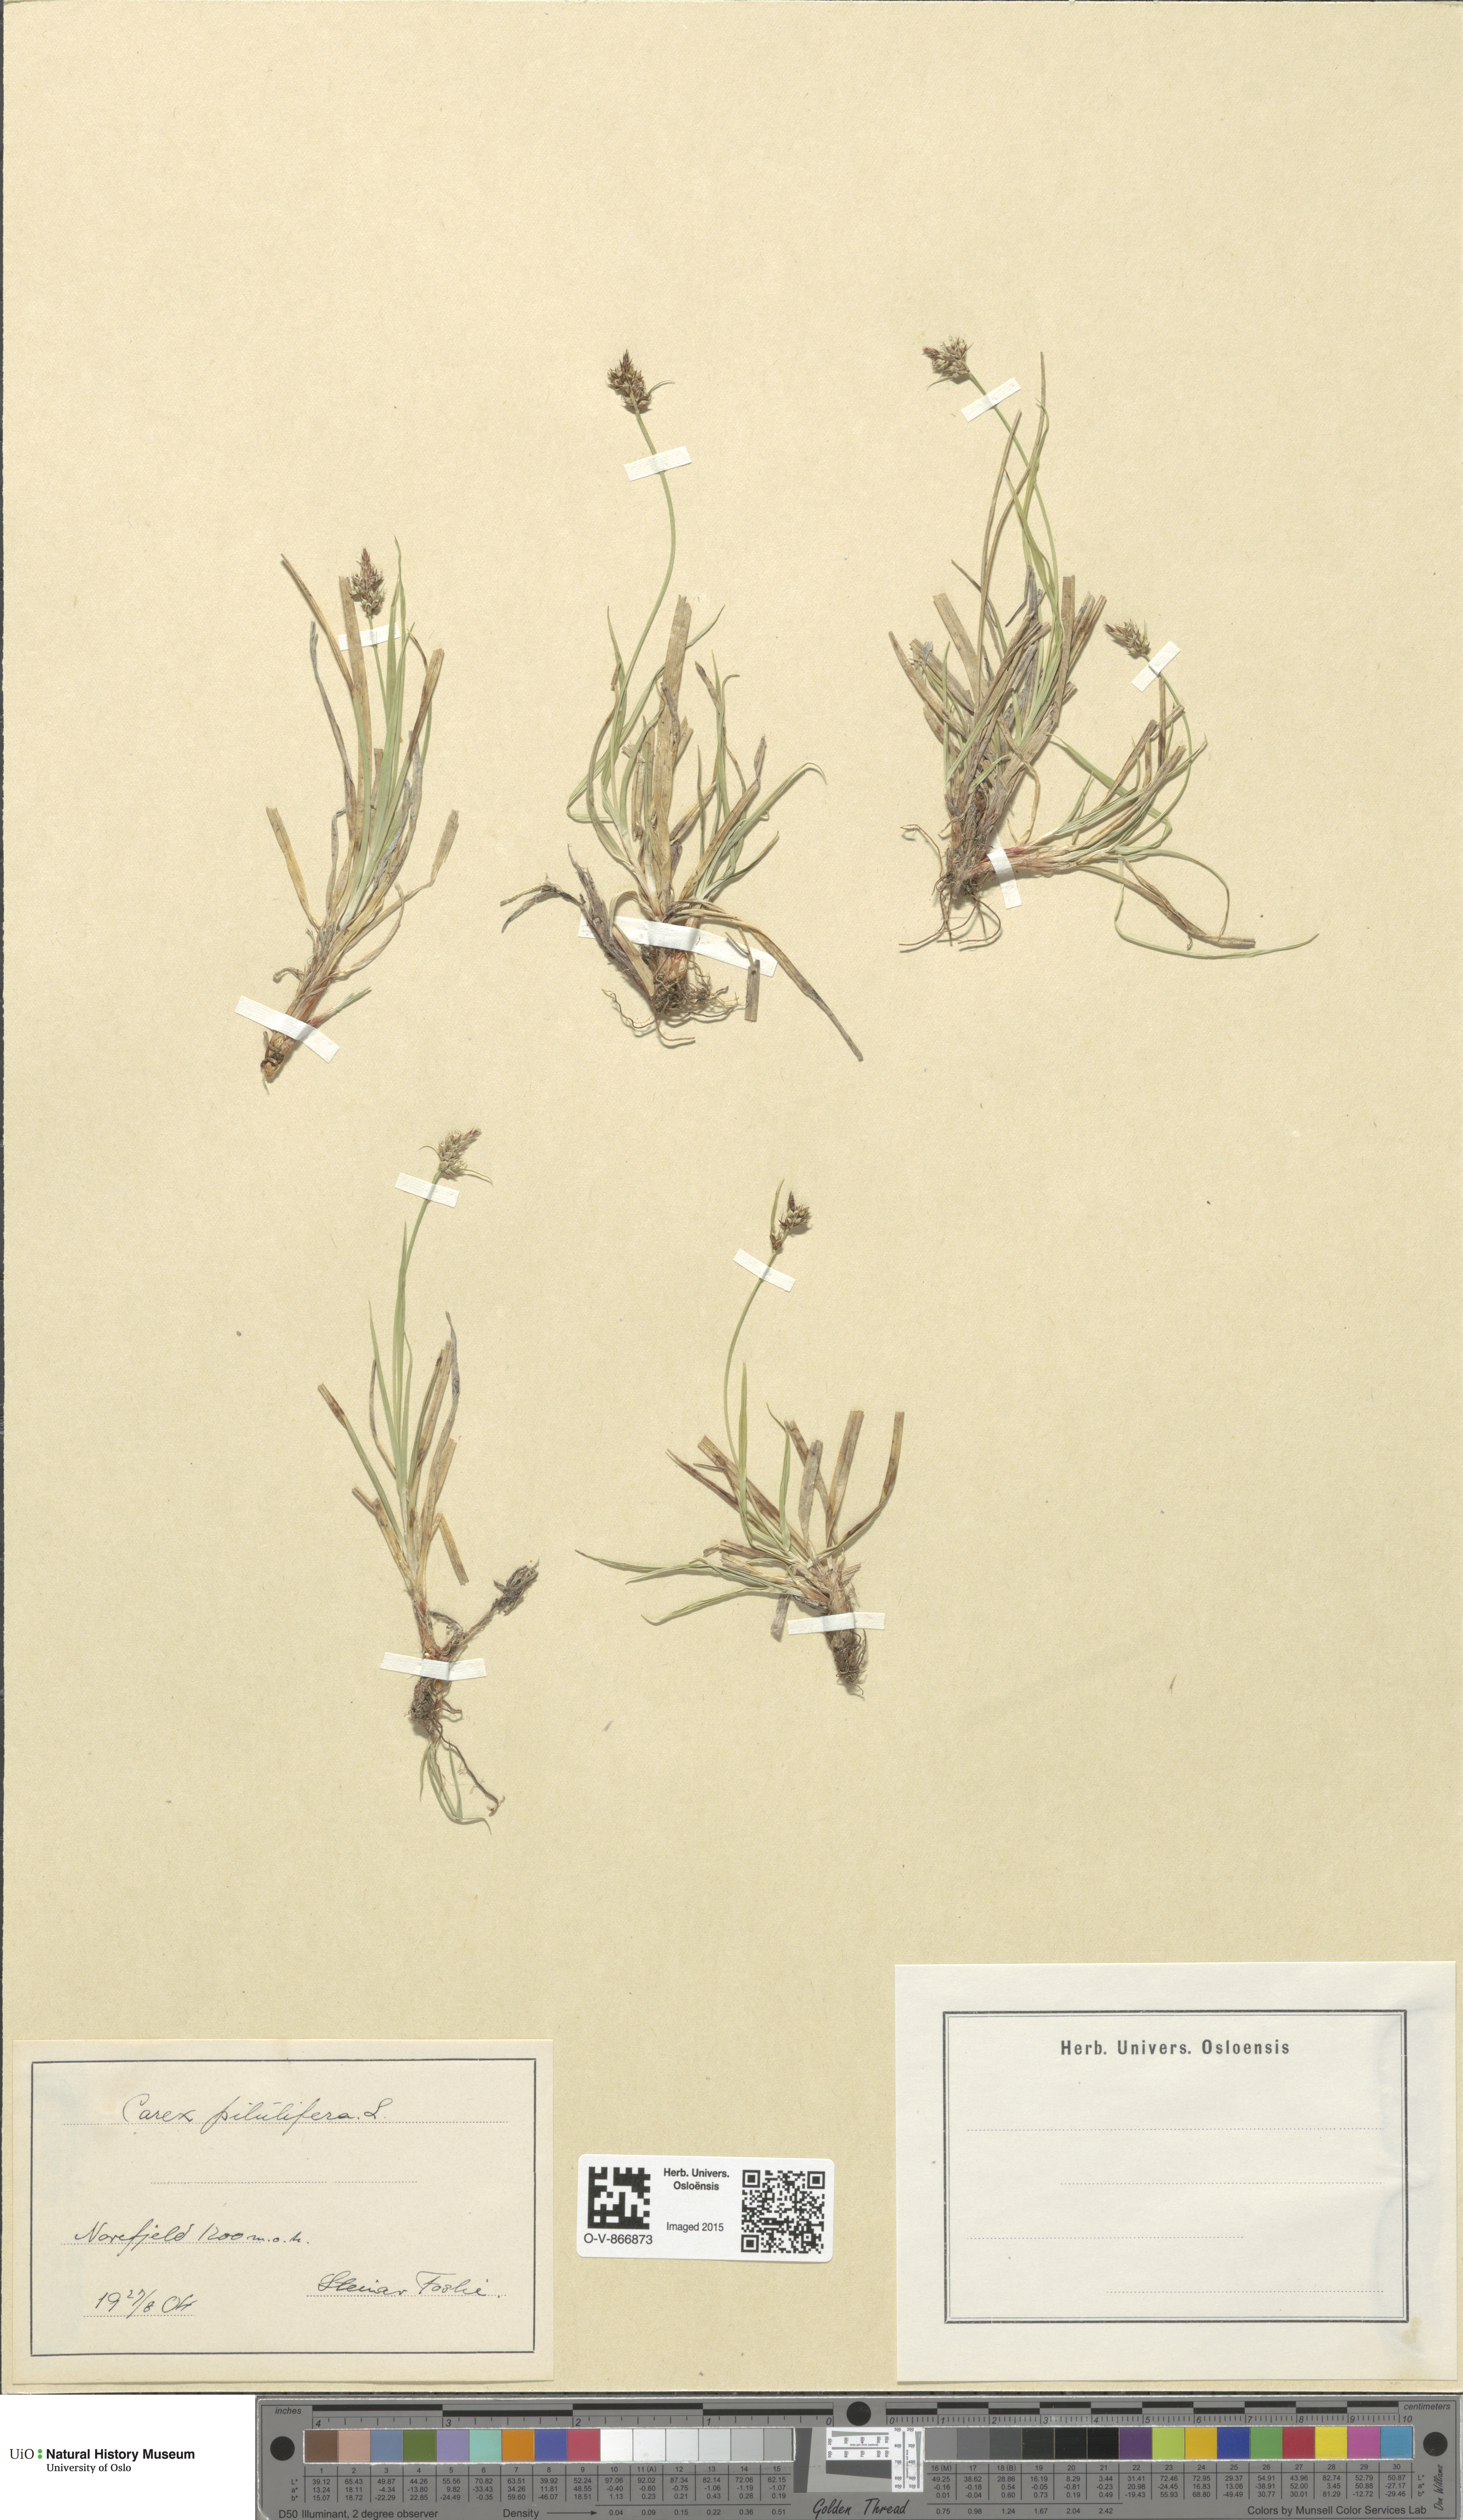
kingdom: Plantae
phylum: Tracheophyta
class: Liliopsida
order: Poales
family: Cyperaceae
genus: Carex
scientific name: Carex pilulifera
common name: Pill sedge
